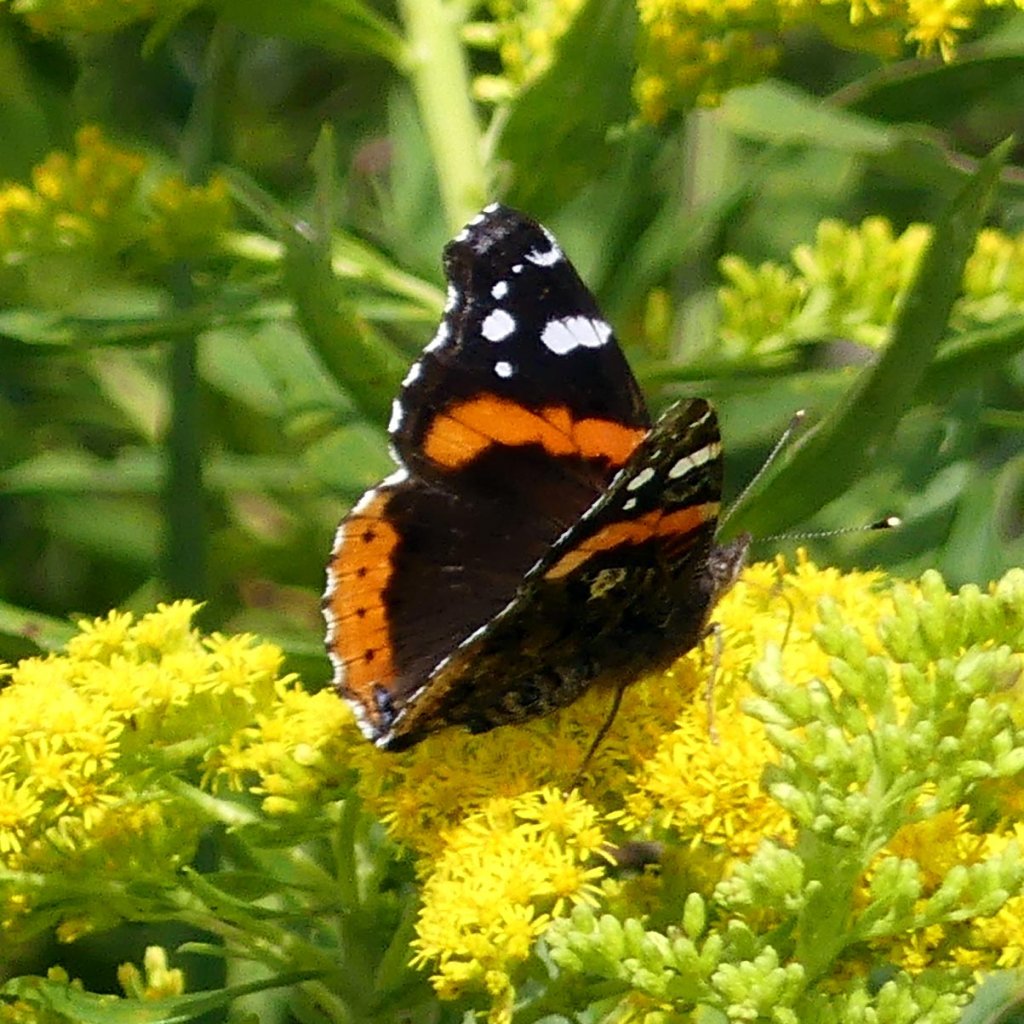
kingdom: Animalia
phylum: Arthropoda
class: Insecta
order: Lepidoptera
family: Nymphalidae
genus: Vanessa
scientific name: Vanessa atalanta
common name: Red Admiral
